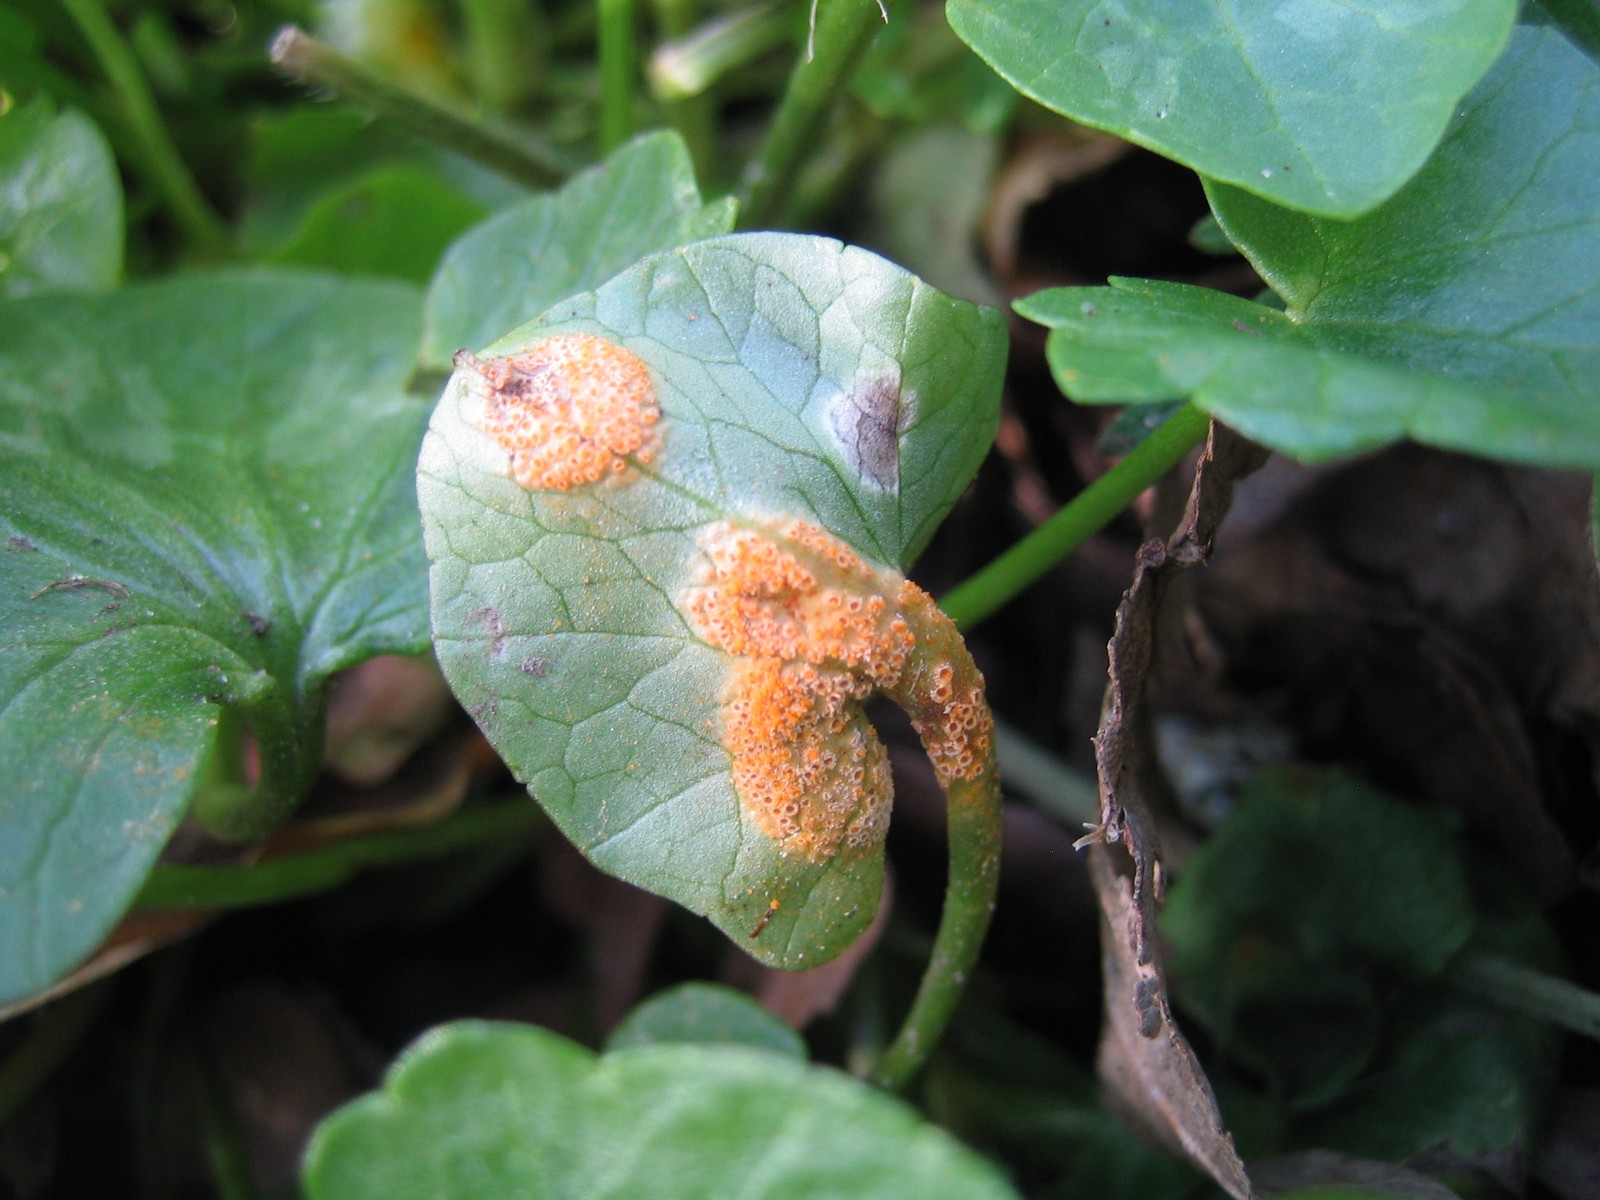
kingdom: Fungi
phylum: Basidiomycota
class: Pucciniomycetes
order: Pucciniales
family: Pucciniaceae
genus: Uromyces
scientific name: Uromyces dactylidis
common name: ranunkel-encellerust
